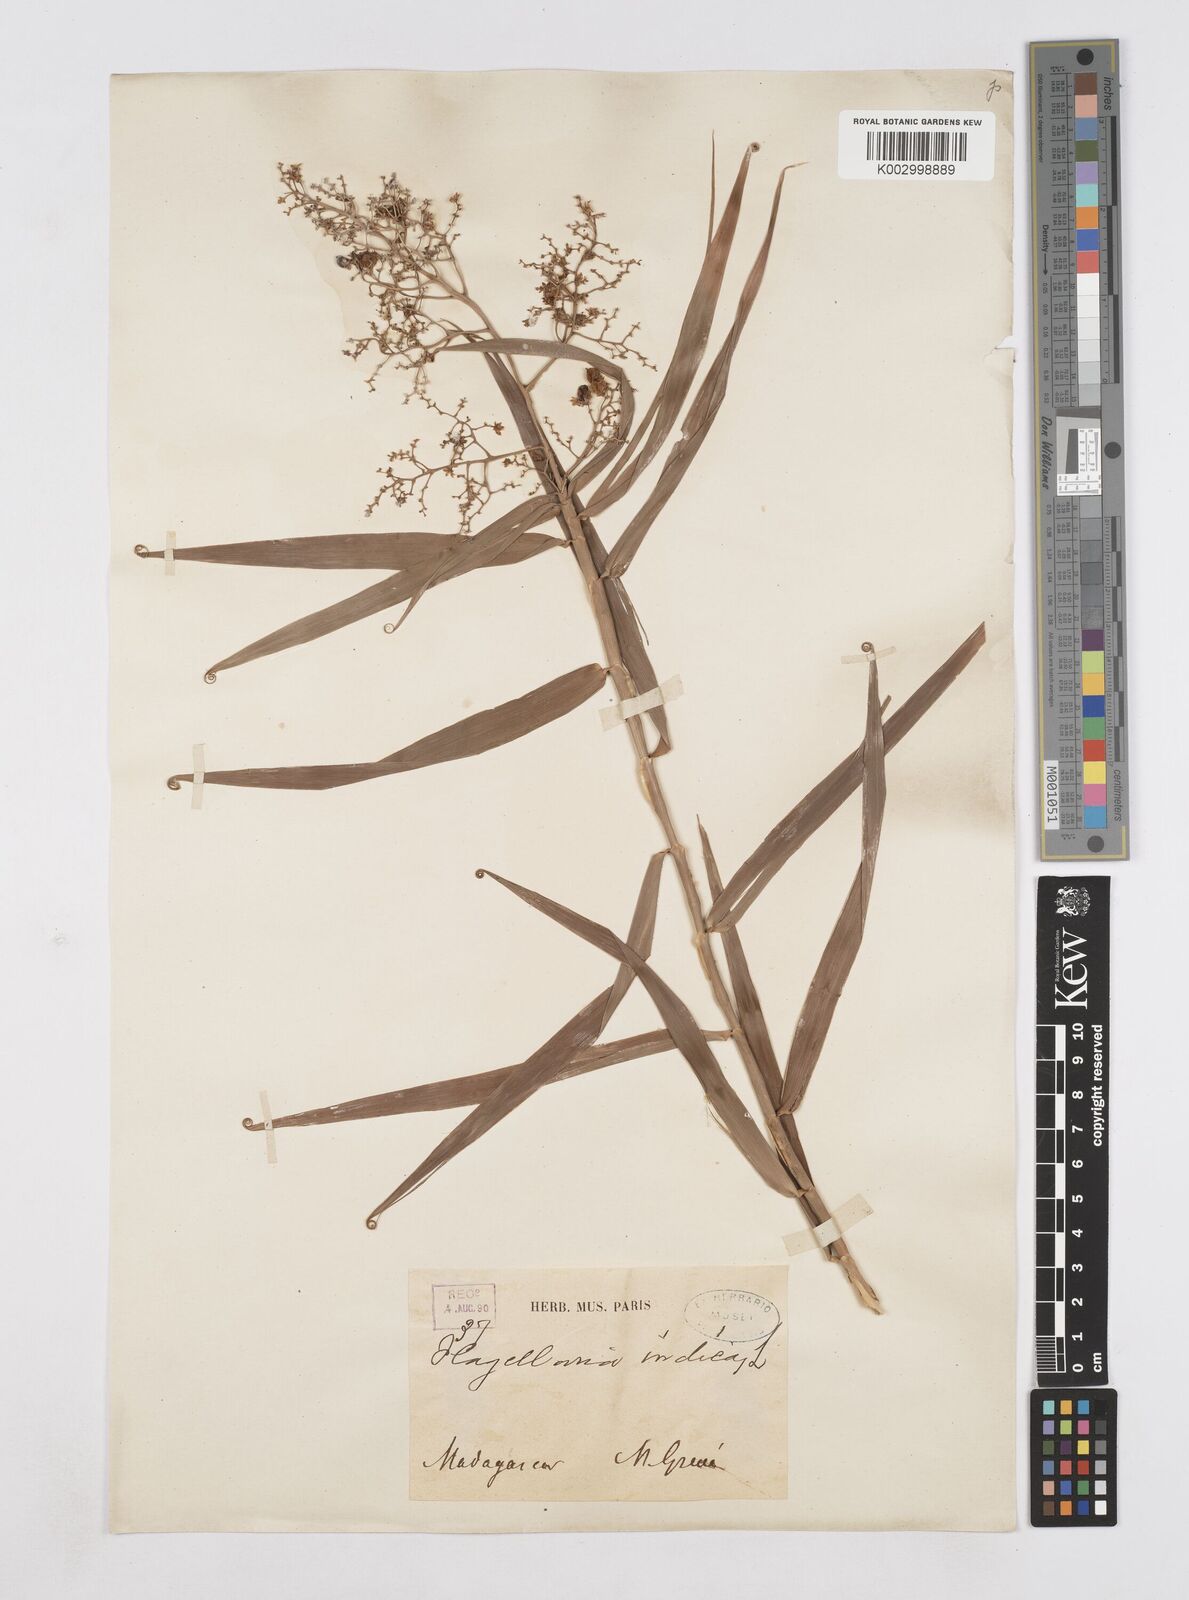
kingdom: Plantae
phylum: Tracheophyta
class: Liliopsida
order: Poales
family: Flagellariaceae
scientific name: Flagellariaceae
